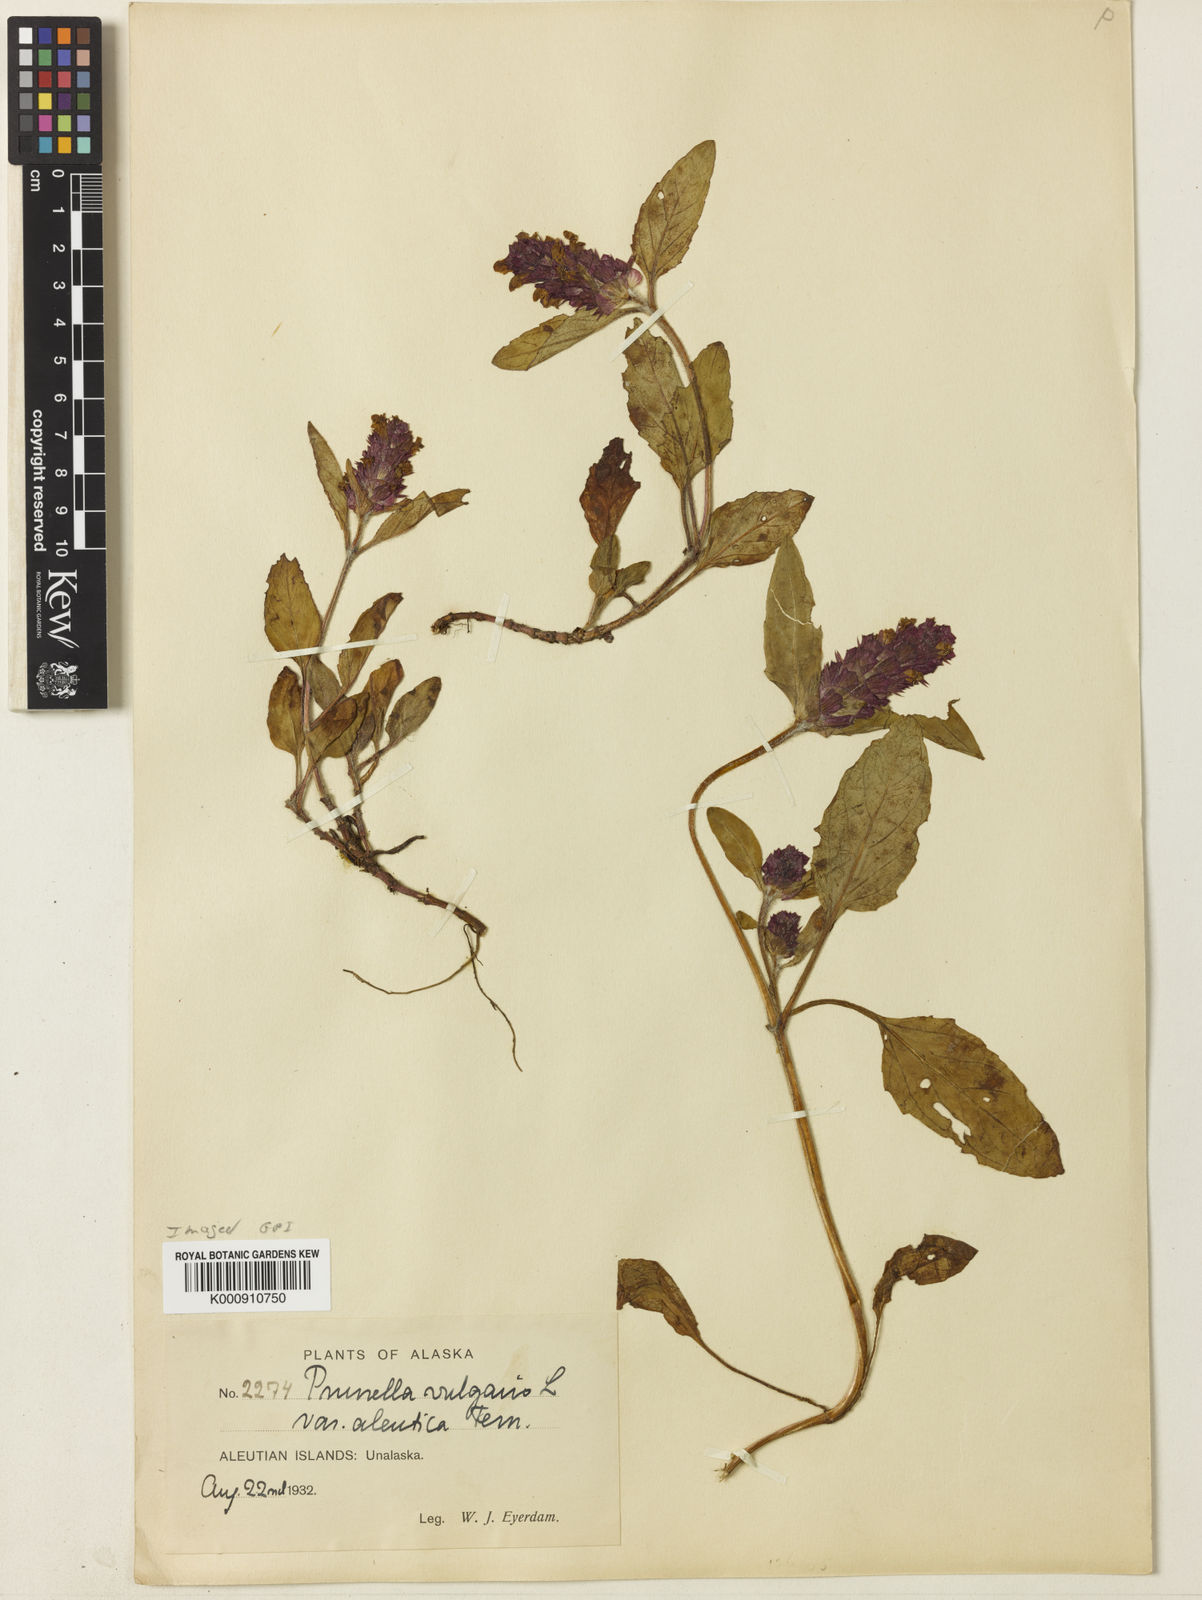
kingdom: Plantae
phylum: Tracheophyta
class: Magnoliopsida
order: Lamiales
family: Lamiaceae
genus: Prunella
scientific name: Prunella vulgaris
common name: Heal-all
